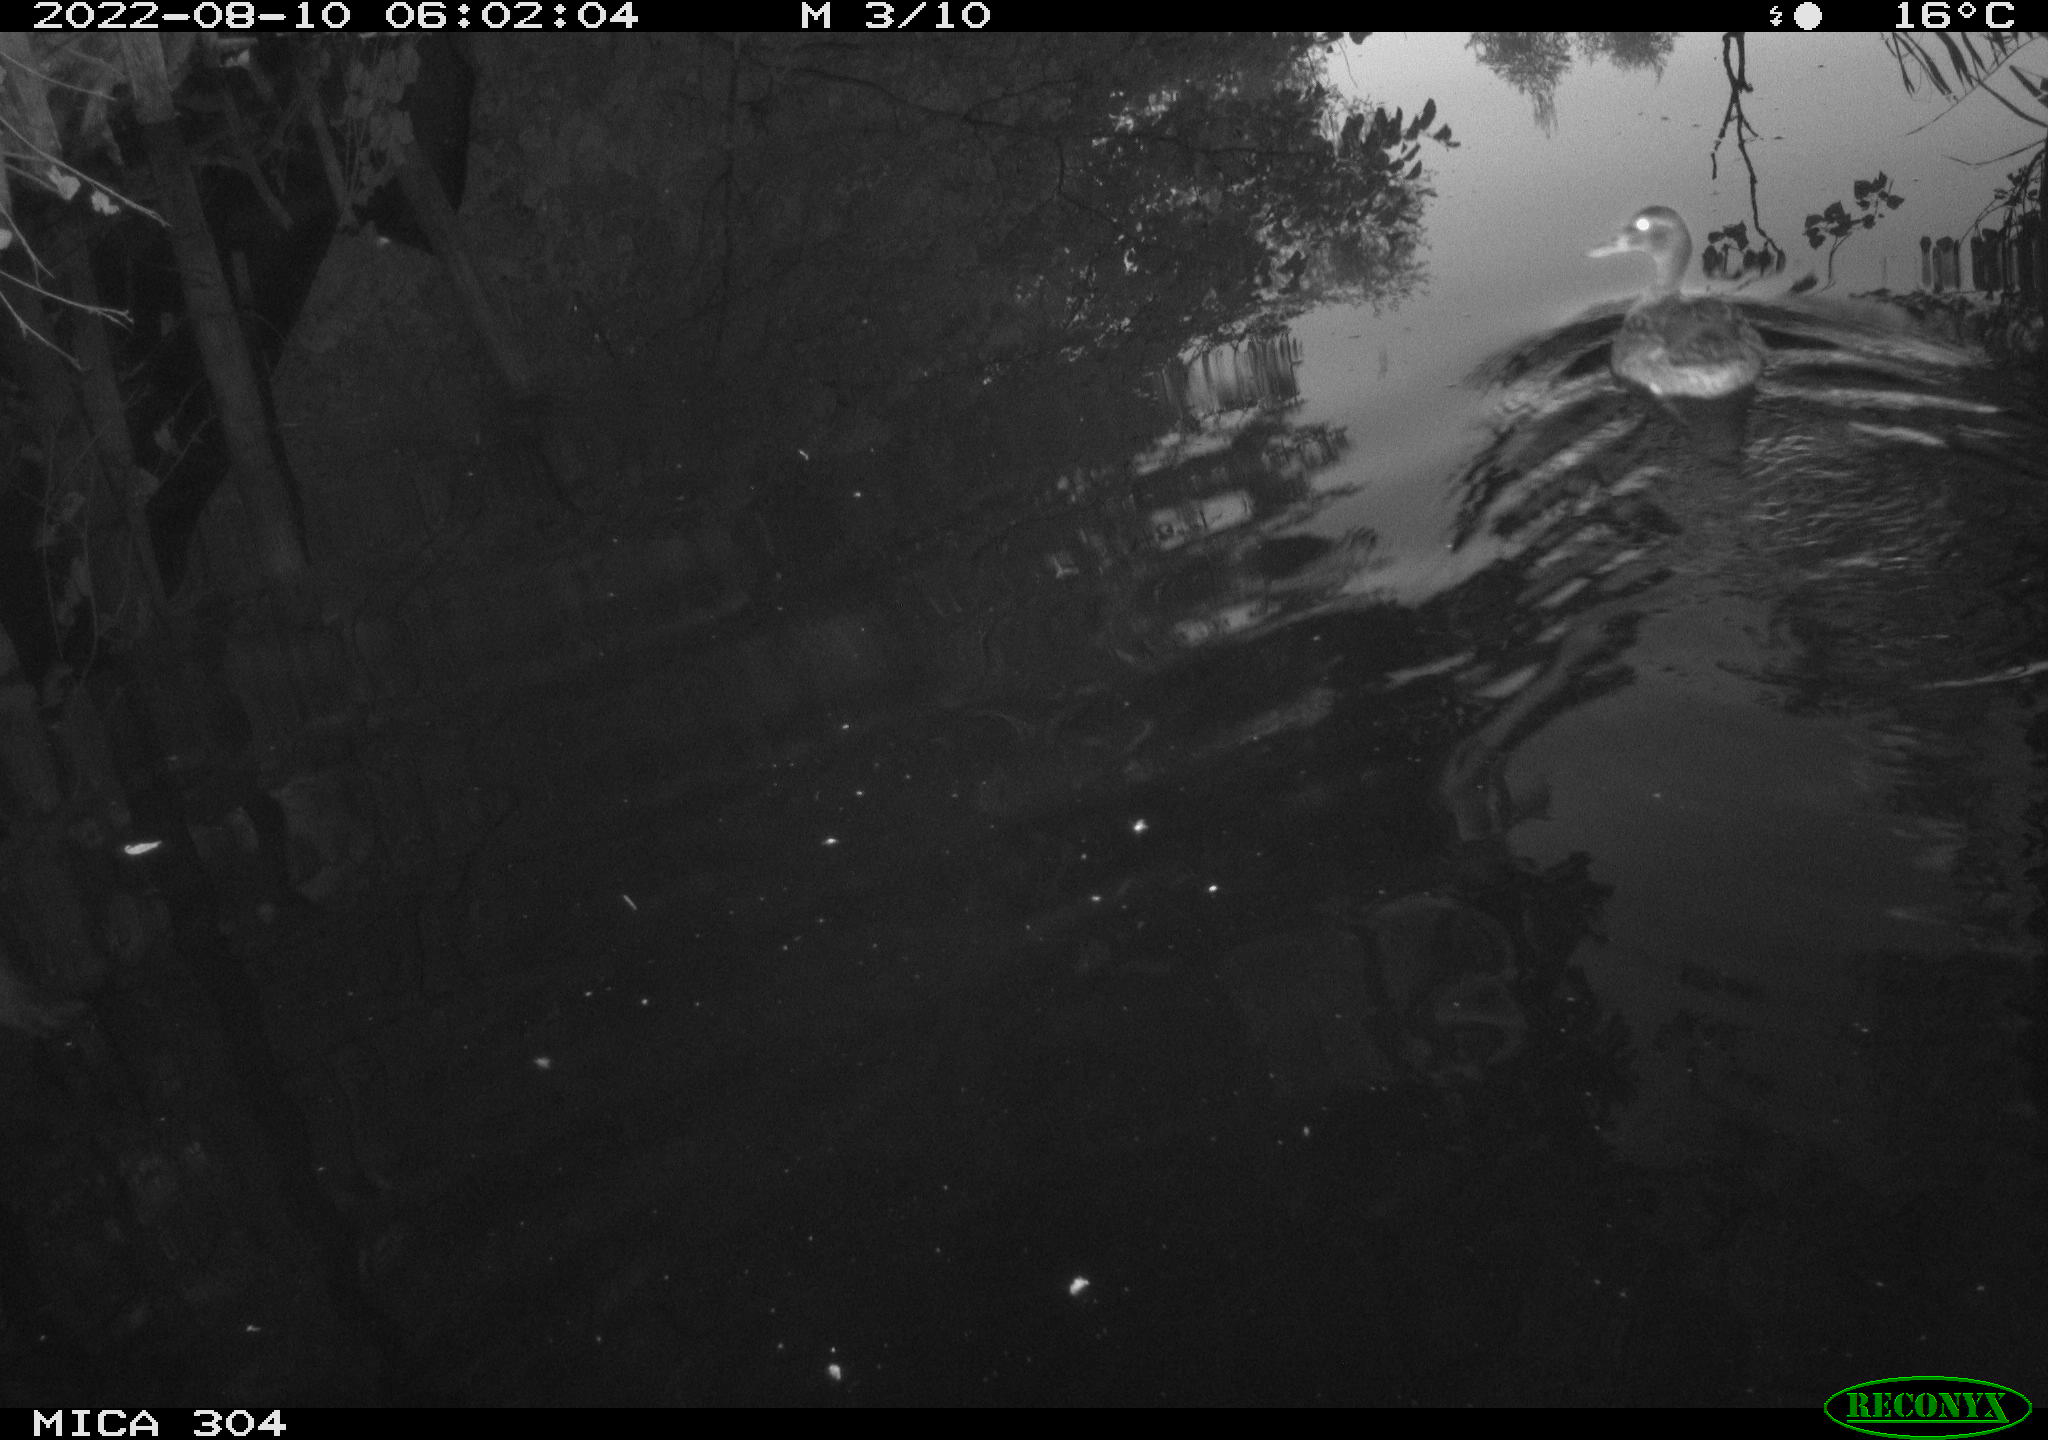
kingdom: Animalia
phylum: Chordata
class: Aves
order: Anseriformes
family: Anatidae
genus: Anas
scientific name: Anas platyrhynchos
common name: Mallard
